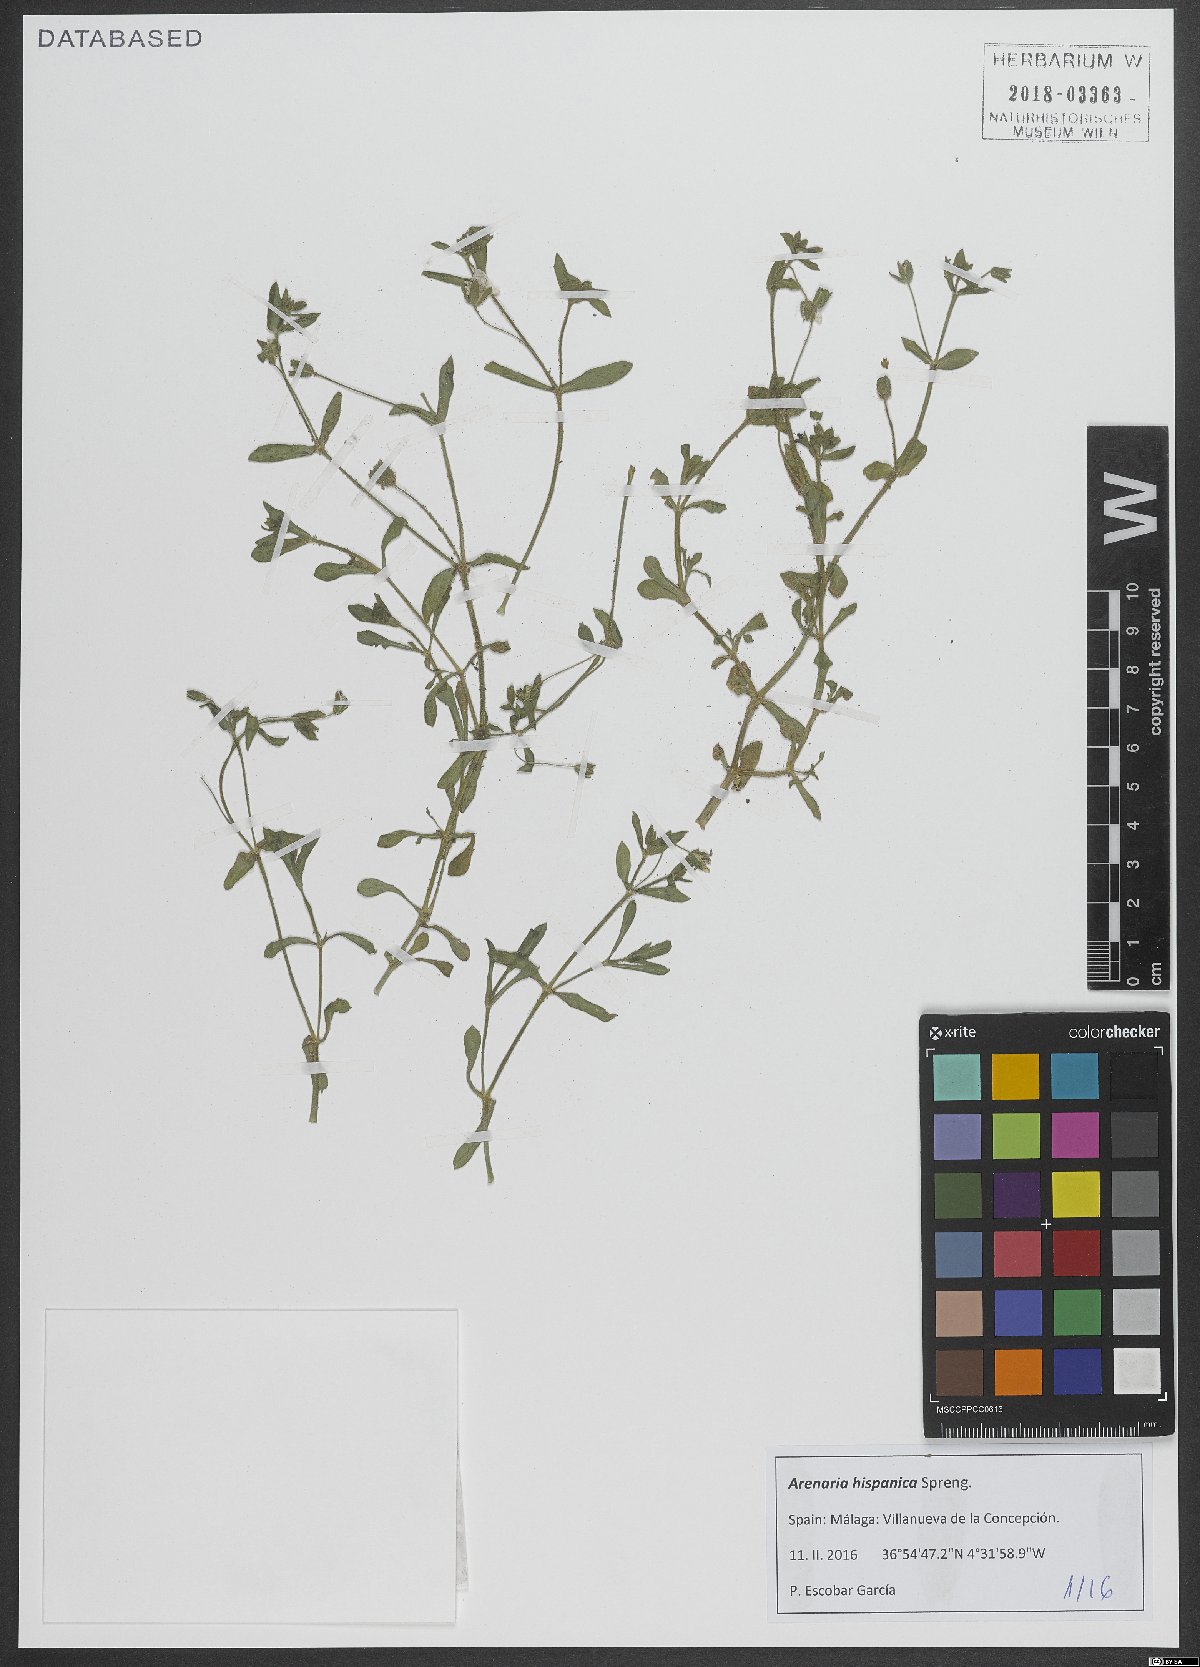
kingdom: Plantae
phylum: Tracheophyta
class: Magnoliopsida
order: Caryophyllales
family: Caryophyllaceae
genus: Arenaria
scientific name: Arenaria hispanica
